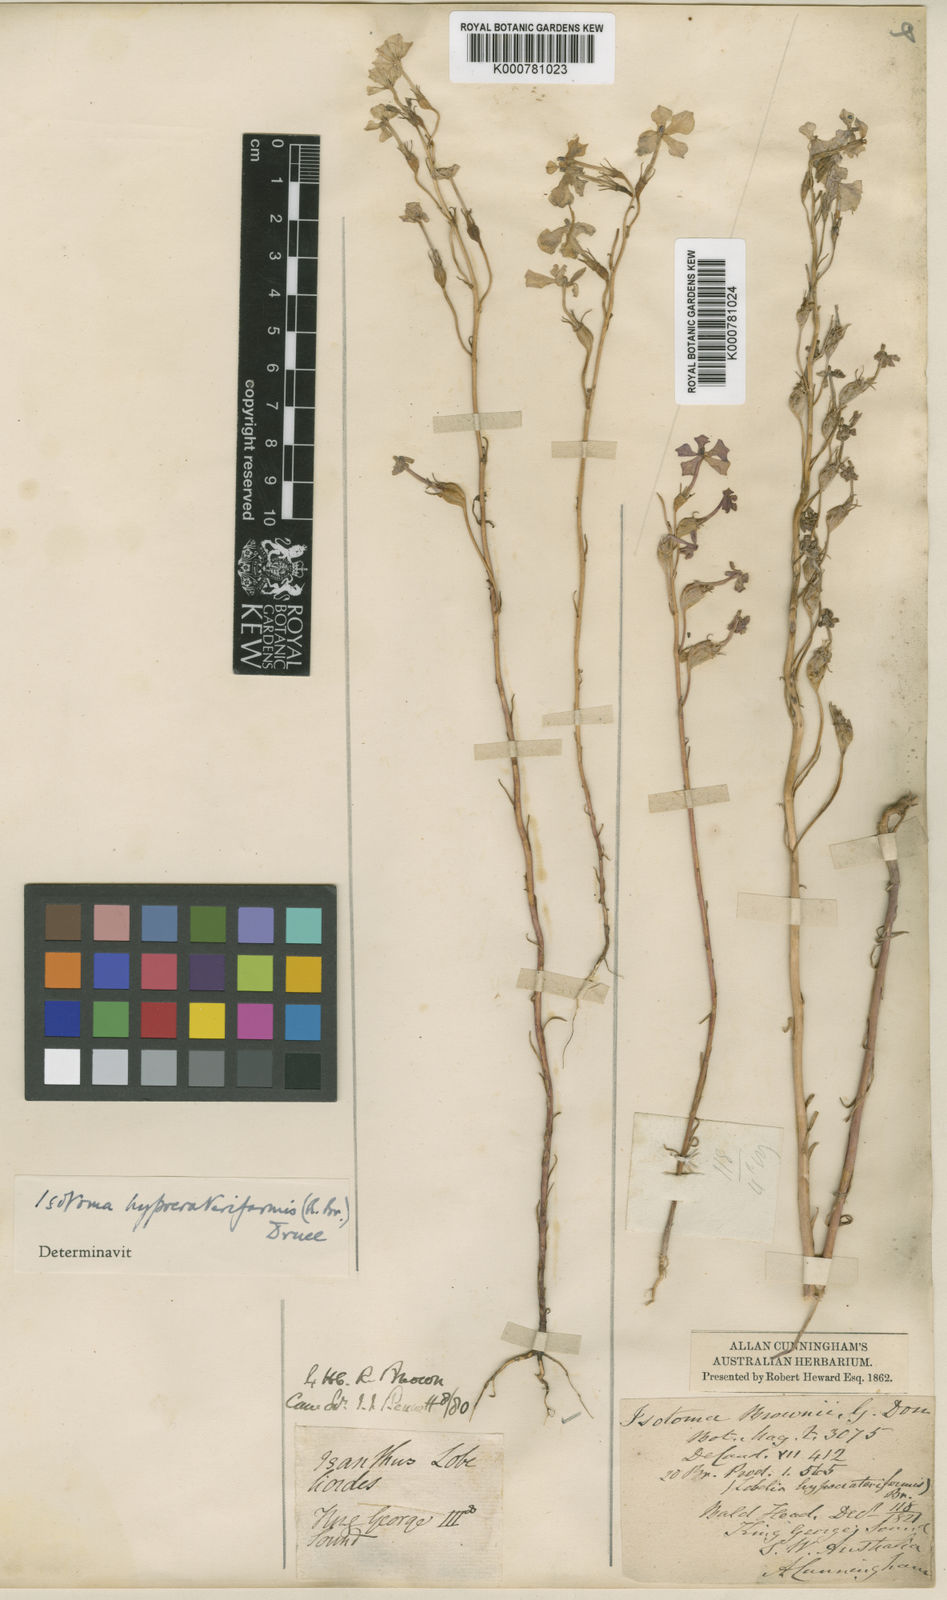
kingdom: Plantae
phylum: Tracheophyta
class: Magnoliopsida
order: Asterales
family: Campanulaceae
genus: Isotoma
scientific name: Isotoma hypocrateriformis
